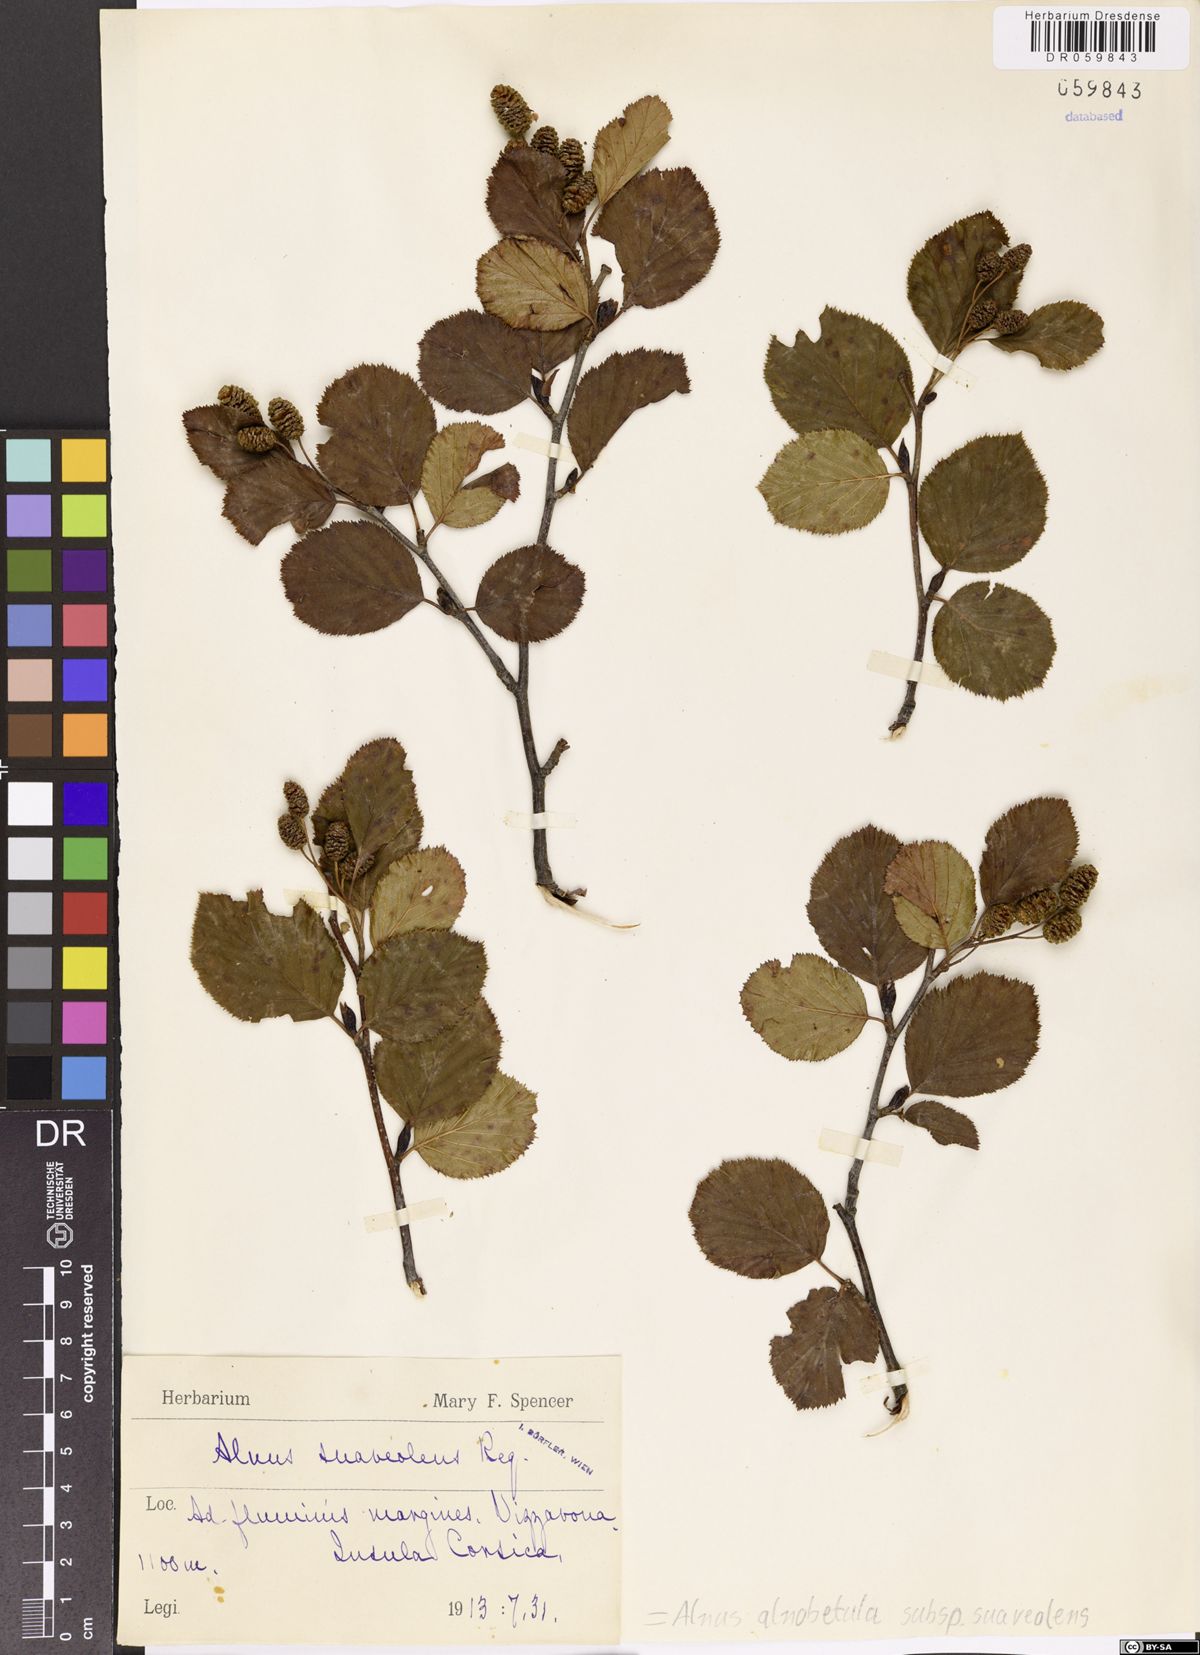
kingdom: Plantae
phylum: Tracheophyta
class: Magnoliopsida
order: Fagales
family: Betulaceae
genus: Alnus
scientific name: Alnus alnobetula
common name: Green alder
